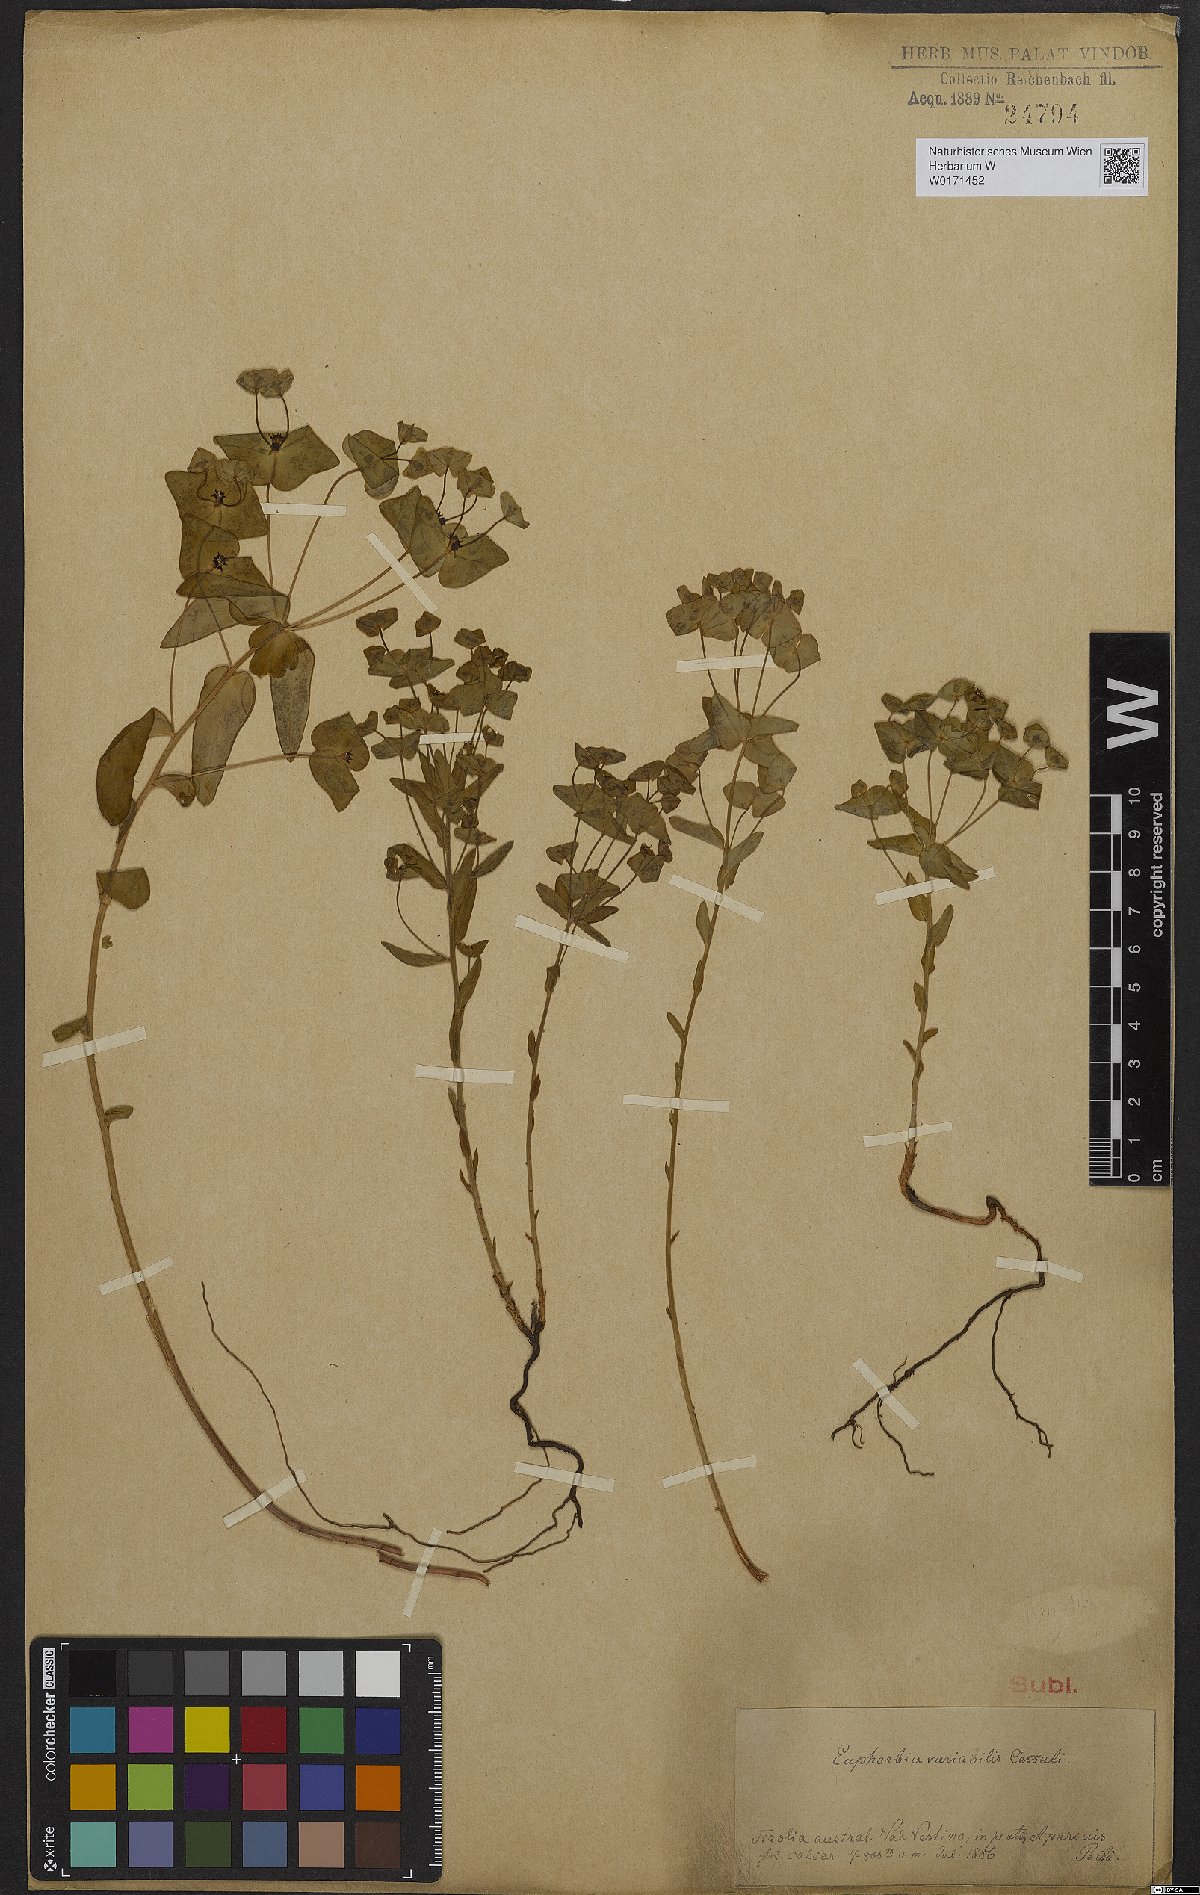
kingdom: Plantae
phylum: Tracheophyta
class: Magnoliopsida
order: Malpighiales
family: Euphorbiaceae
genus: Euphorbia
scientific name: Euphorbia variabilis
